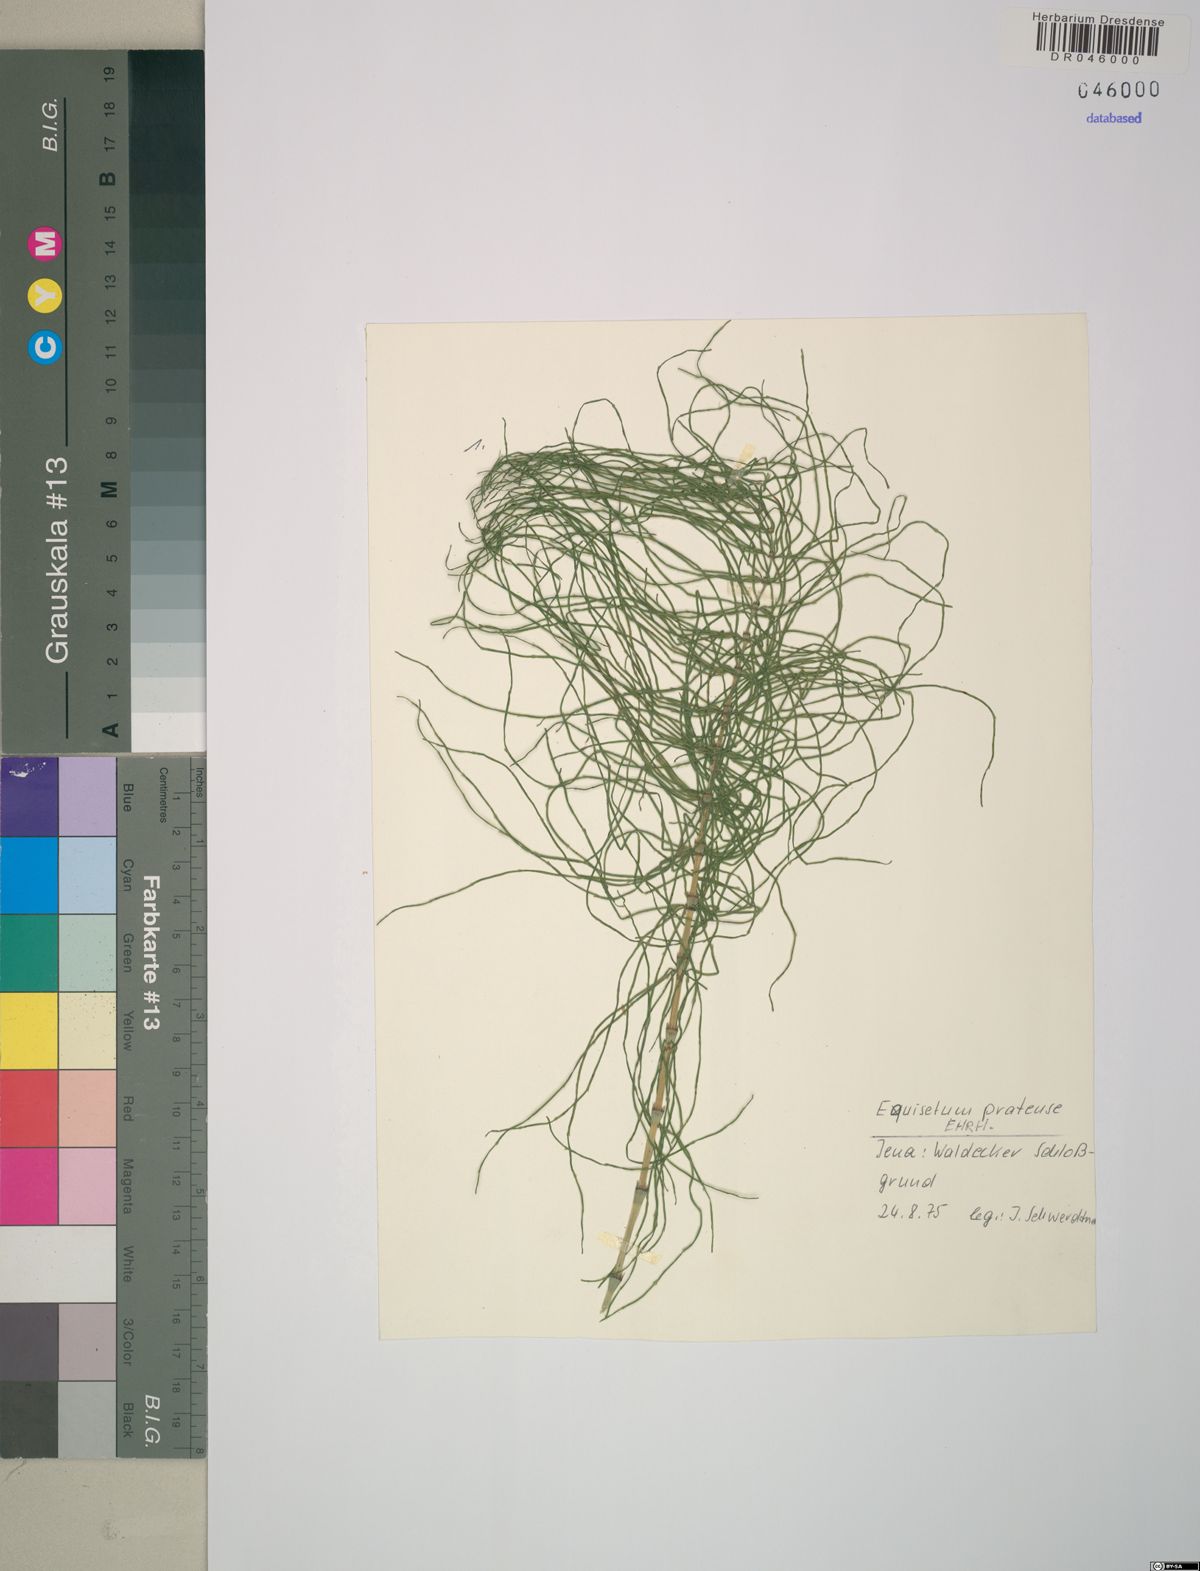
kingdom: Plantae
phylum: Tracheophyta
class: Polypodiopsida
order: Equisetales
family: Equisetaceae
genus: Equisetum
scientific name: Equisetum pratense
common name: Meadow horsetail
